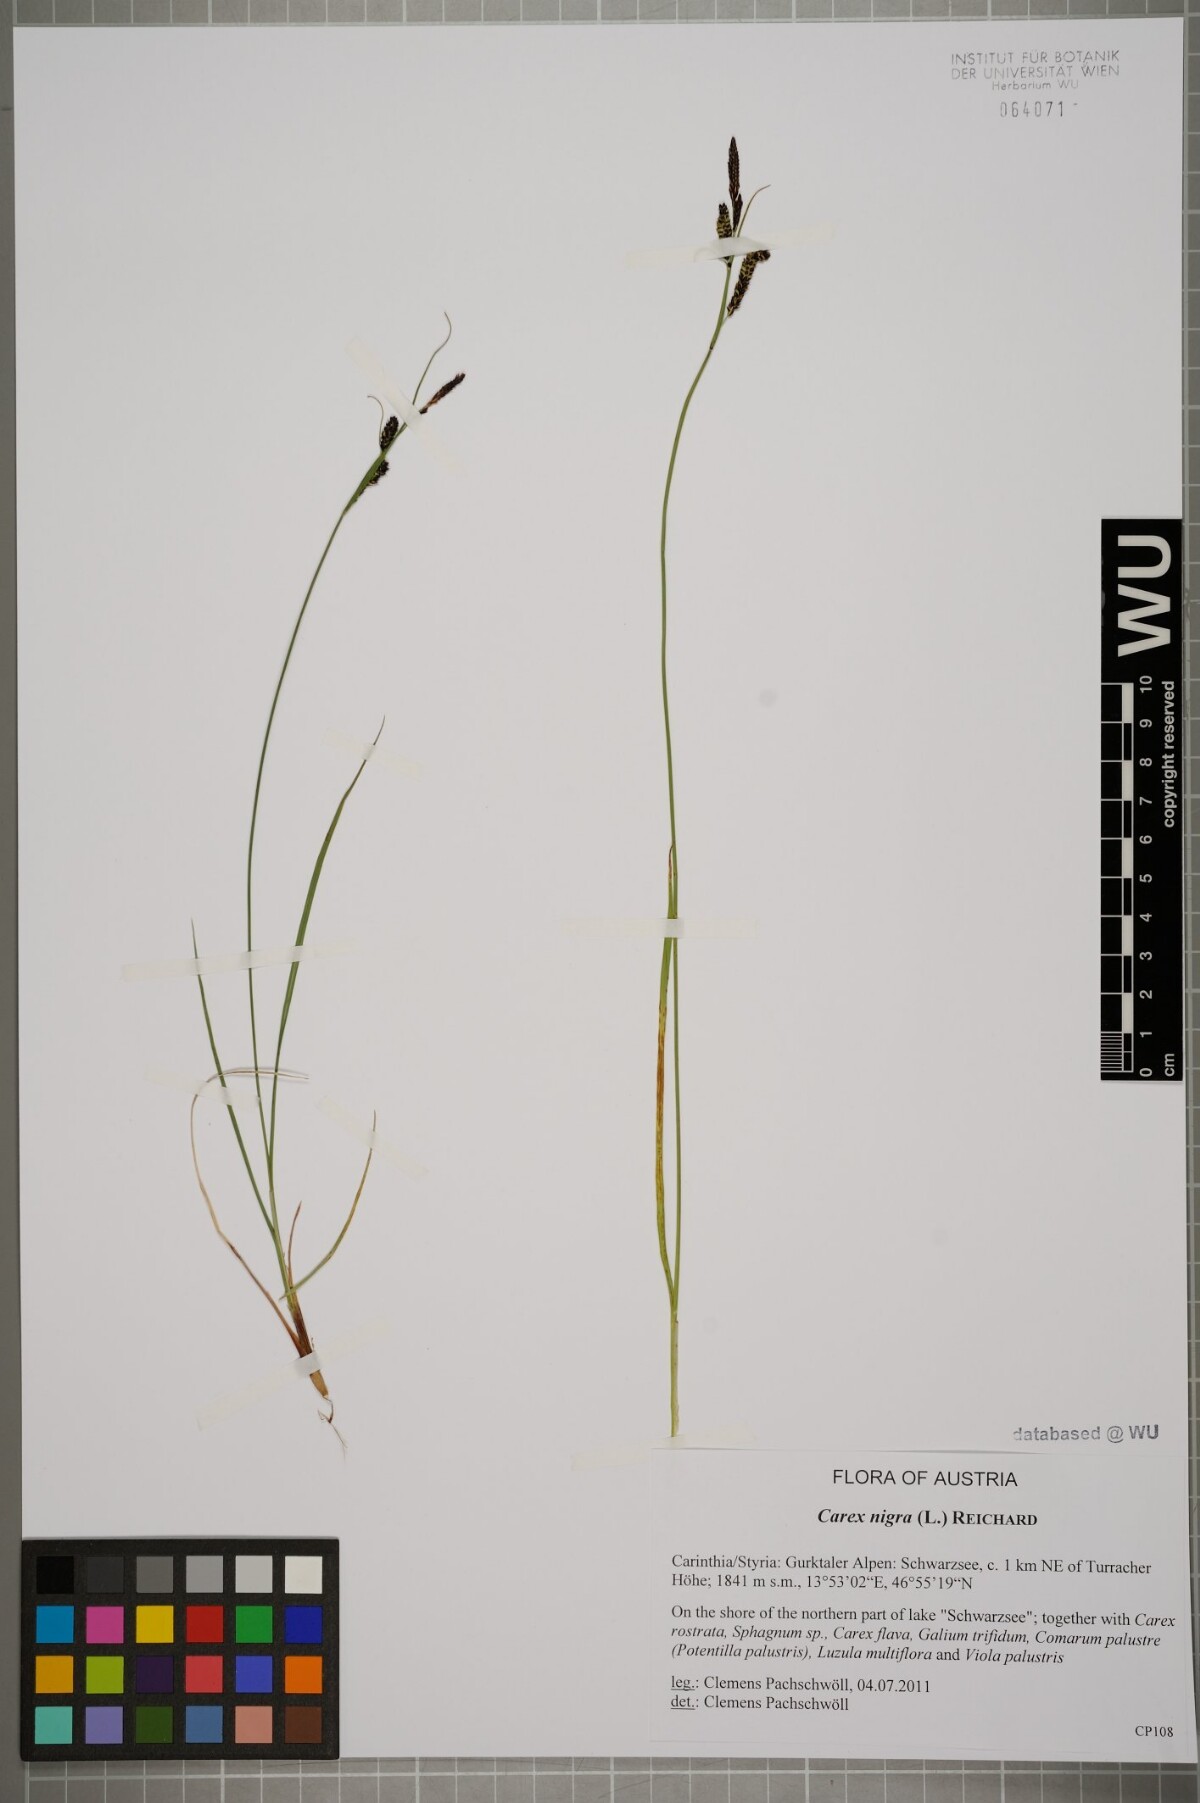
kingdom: Plantae
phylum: Tracheophyta
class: Liliopsida
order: Poales
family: Cyperaceae
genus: Carex
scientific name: Carex nigra
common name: Common sedge
